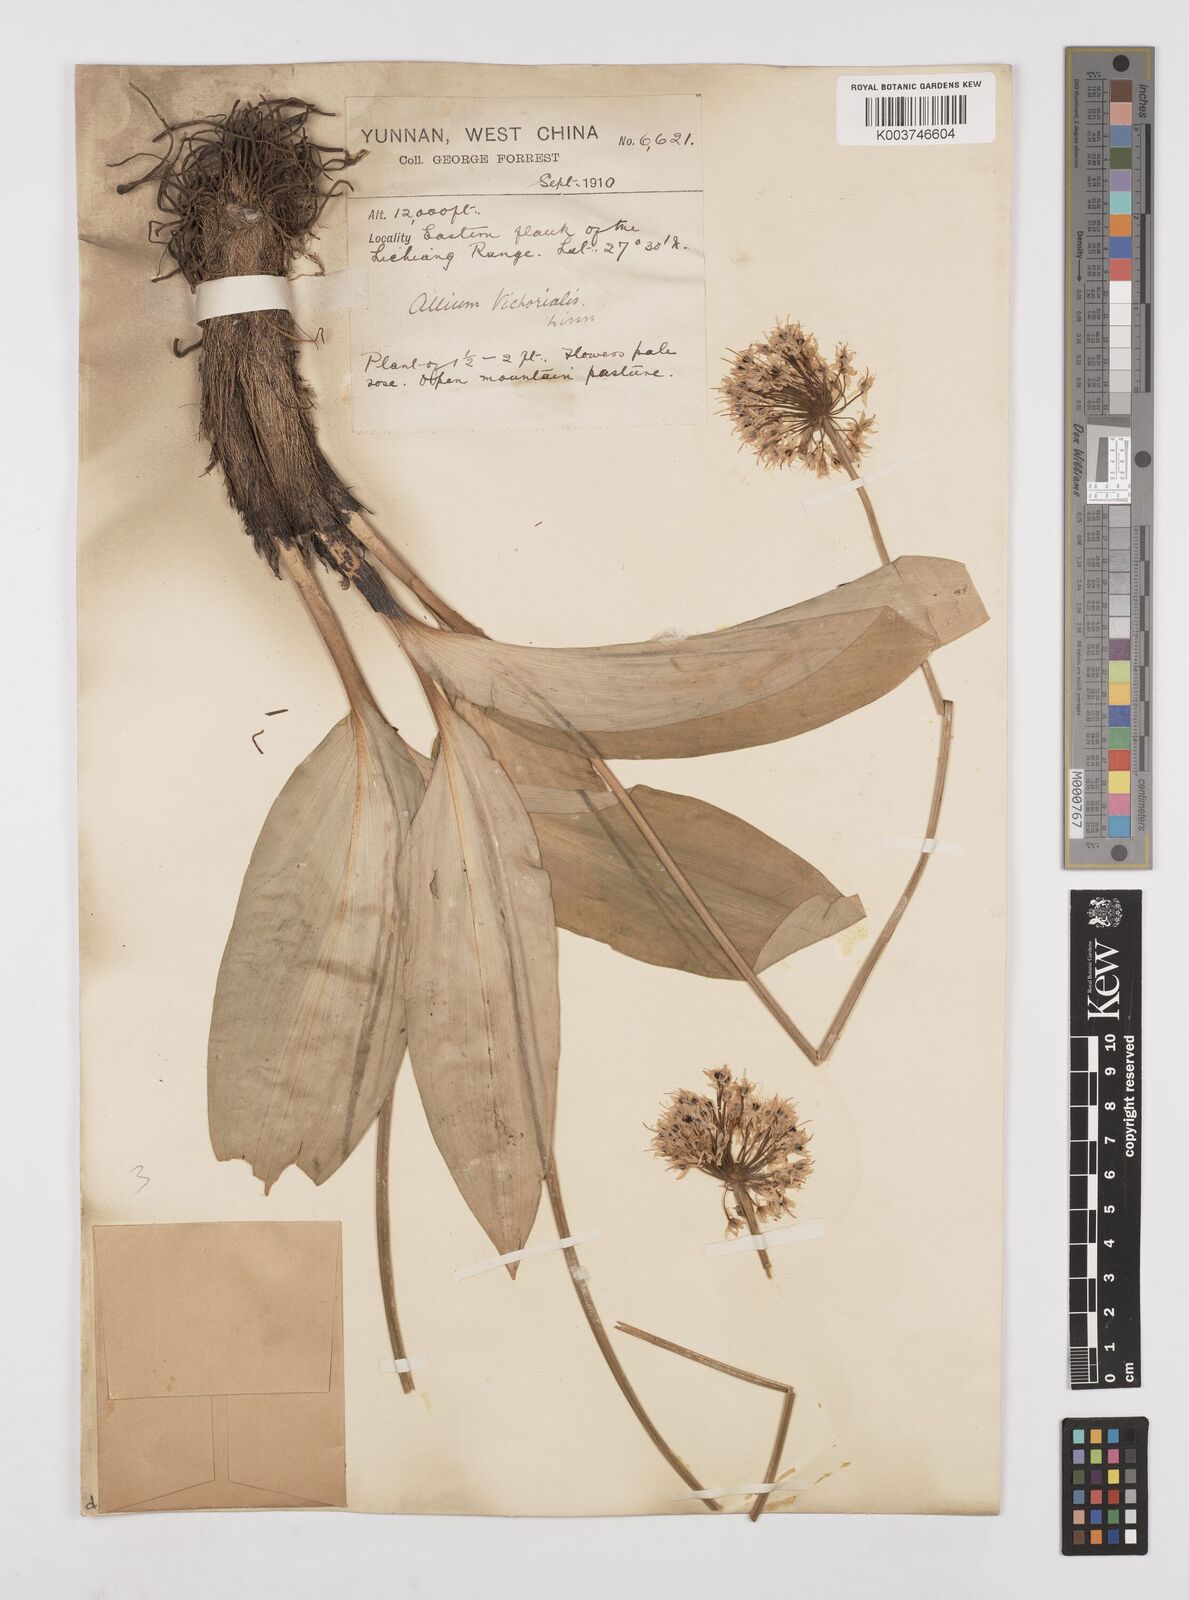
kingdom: Plantae
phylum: Tracheophyta
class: Liliopsida
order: Asparagales
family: Amaryllidaceae
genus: Allium
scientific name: Allium victorialis
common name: Alpine leek
